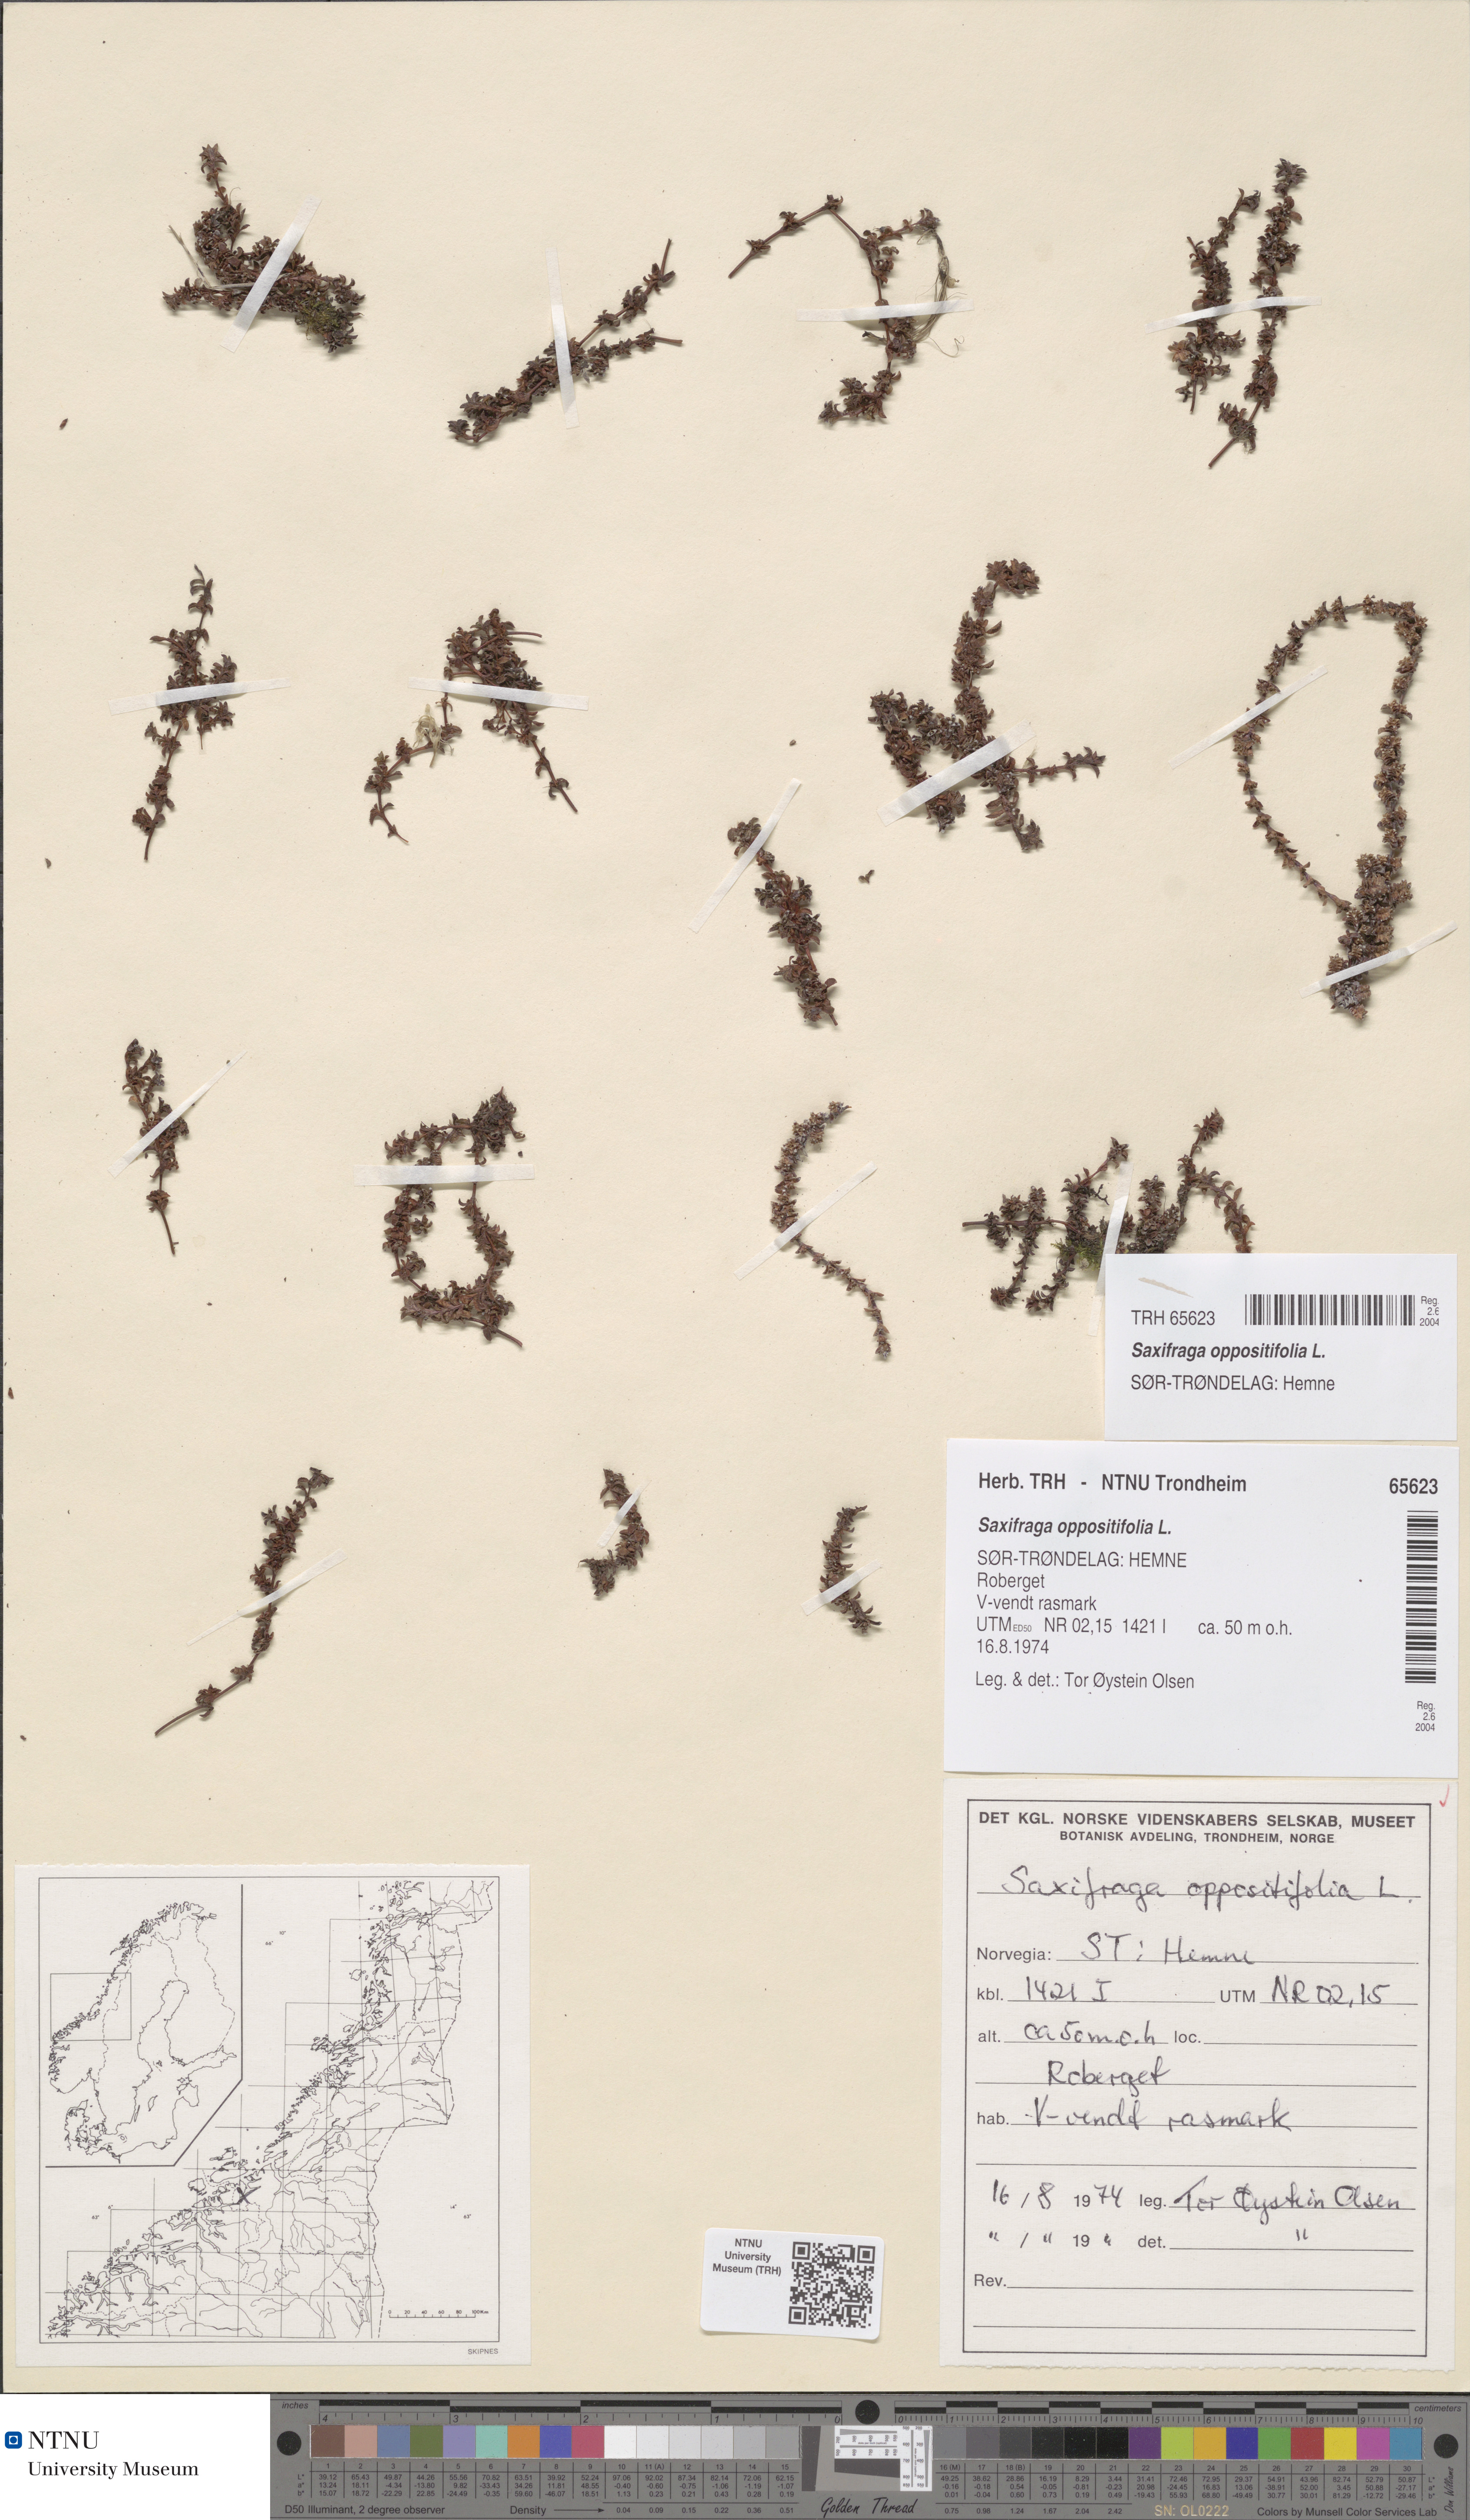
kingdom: Plantae
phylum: Tracheophyta
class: Magnoliopsida
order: Saxifragales
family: Saxifragaceae
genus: Saxifraga
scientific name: Saxifraga oppositifolia
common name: Purple saxifrage
